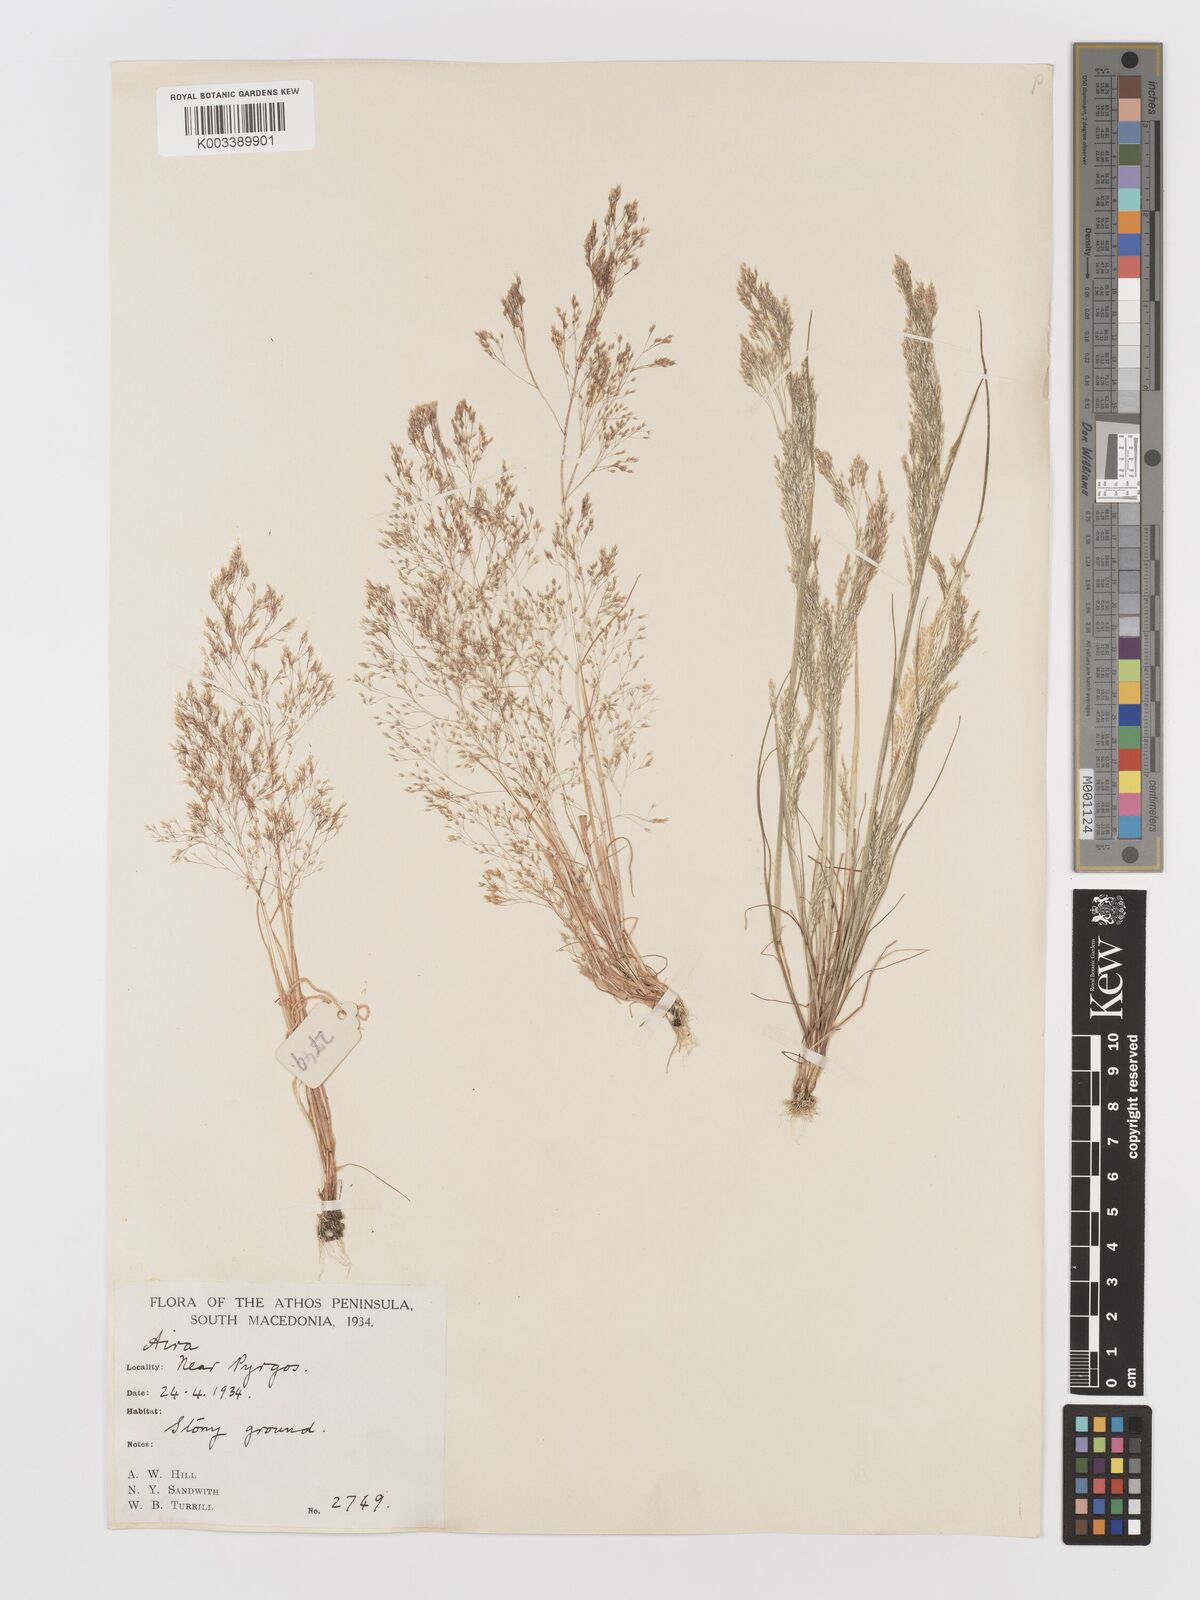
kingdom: Plantae
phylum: Tracheophyta
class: Liliopsida
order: Poales
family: Poaceae
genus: Aira
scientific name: Aira elegans
